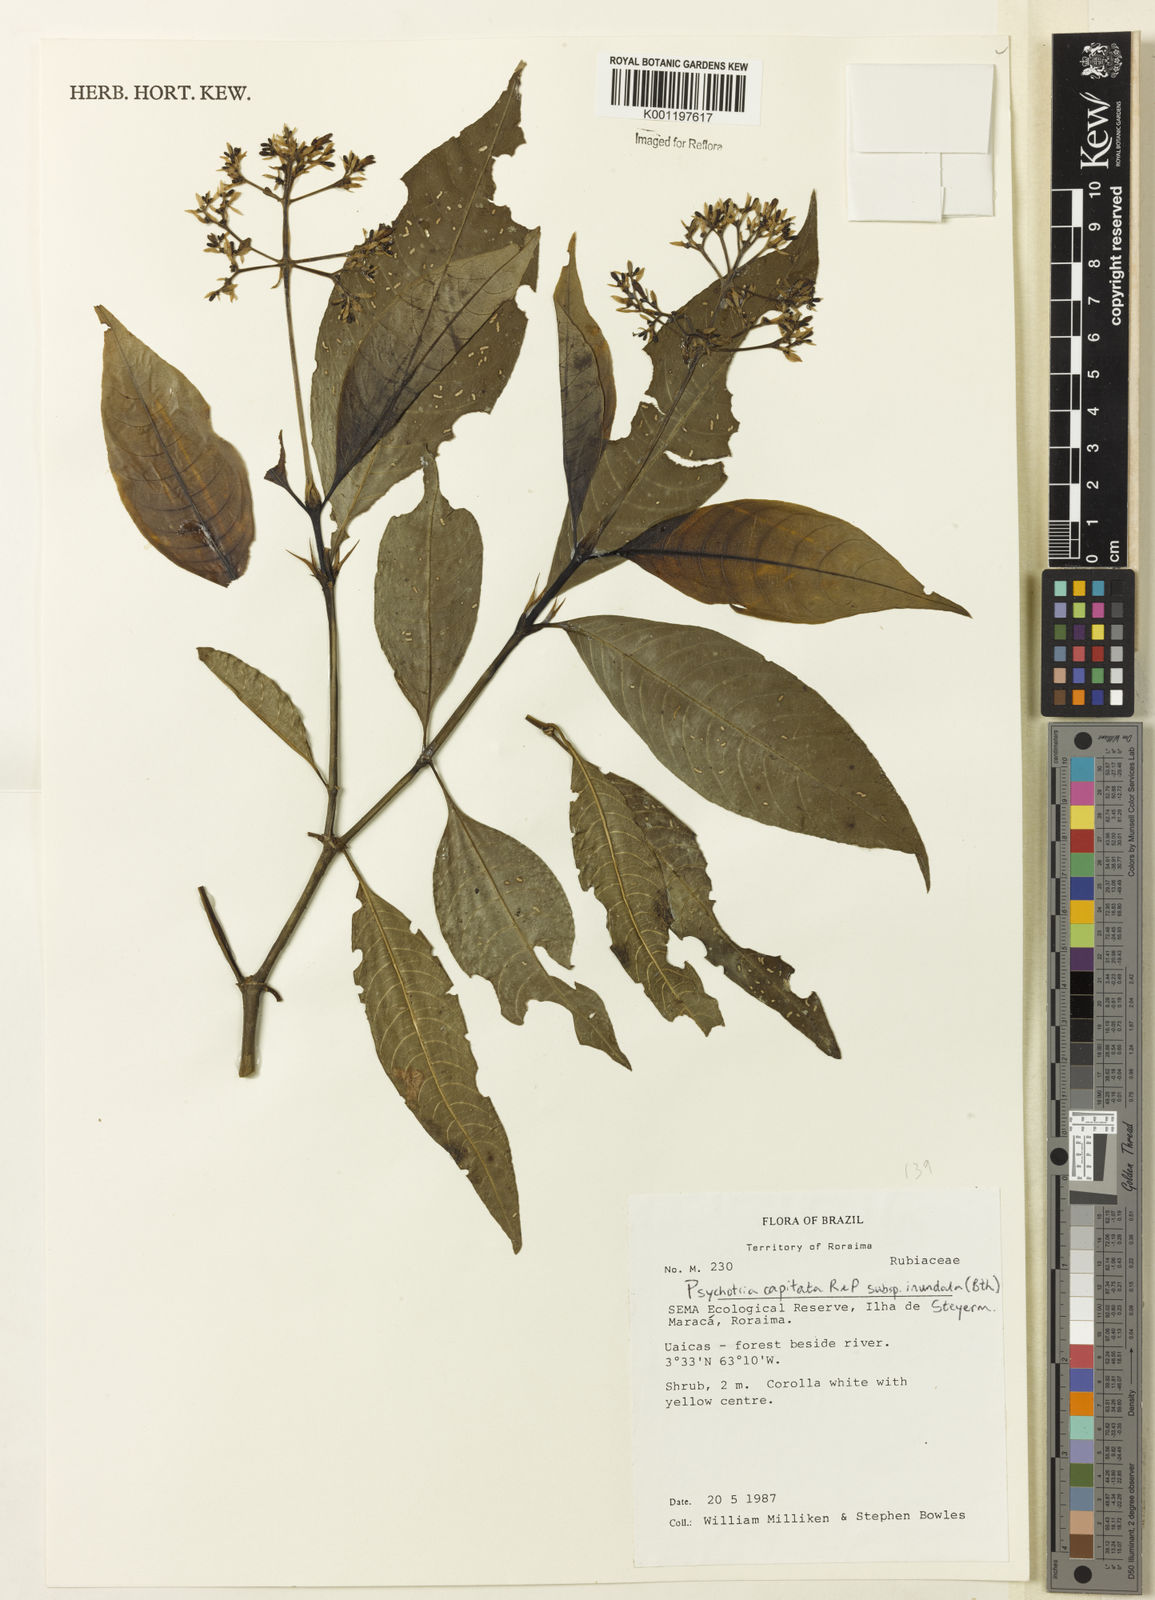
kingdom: Plantae
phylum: Tracheophyta
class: Magnoliopsida
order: Gentianales
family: Rubiaceae
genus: Palicourea
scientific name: Palicourea violacea
